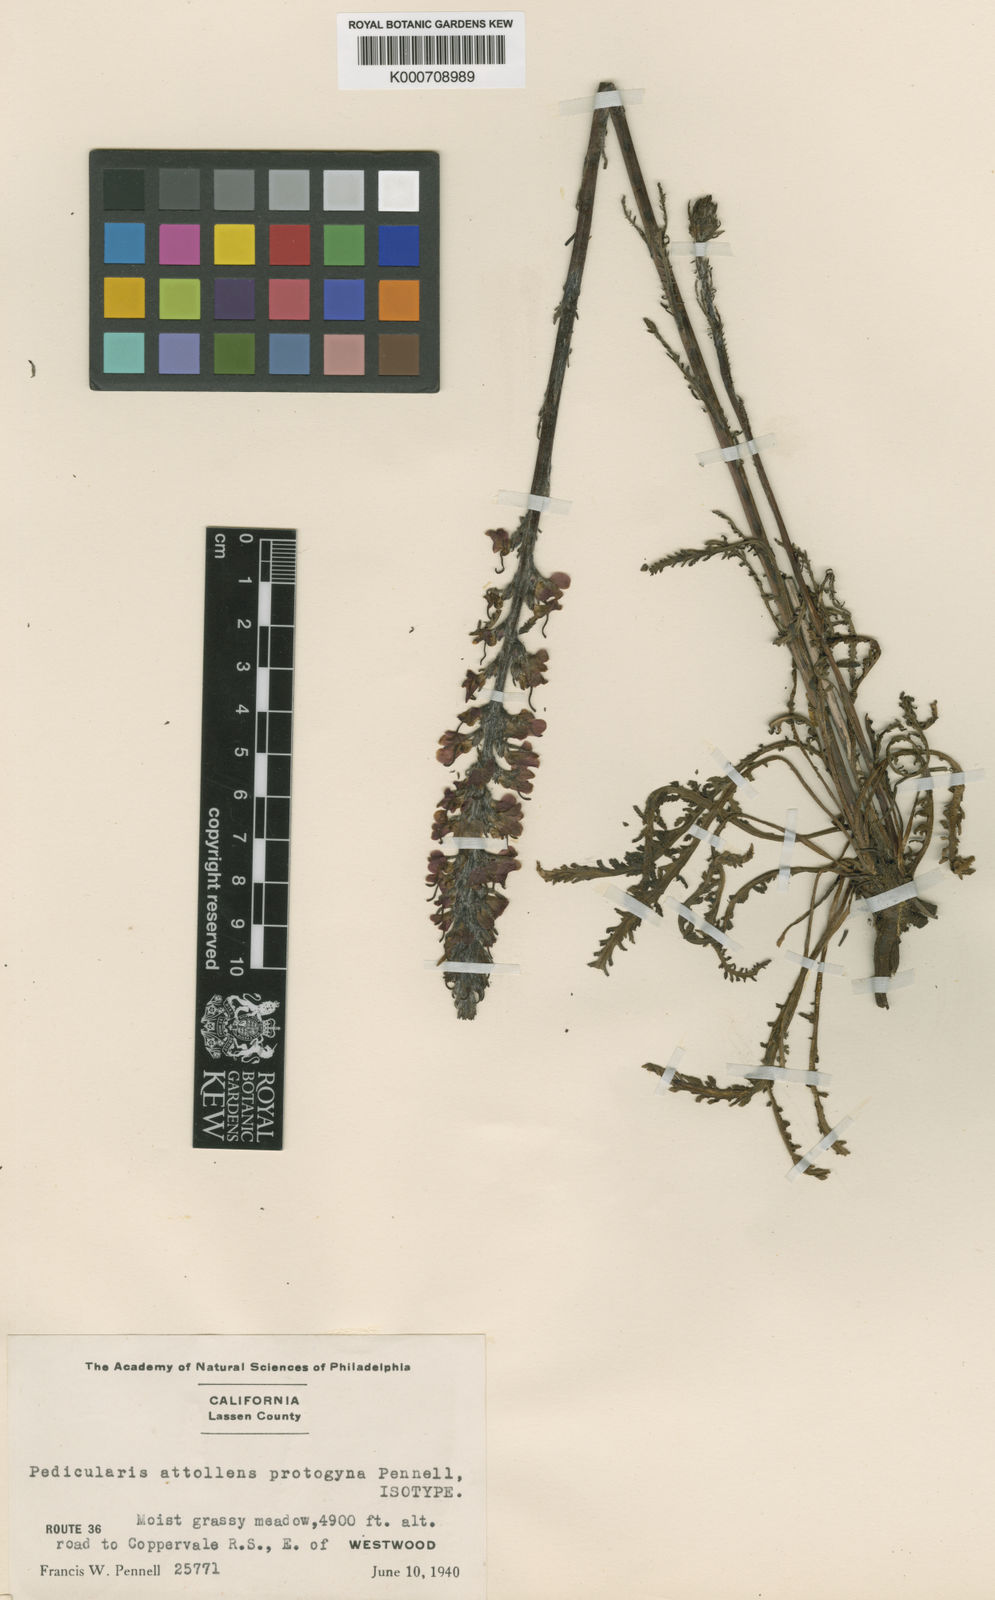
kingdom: Plantae
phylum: Tracheophyta
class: Magnoliopsida
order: Lamiales
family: Orobanchaceae
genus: Pedicularis
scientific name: Pedicularis attollens
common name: Slender pedicularis
